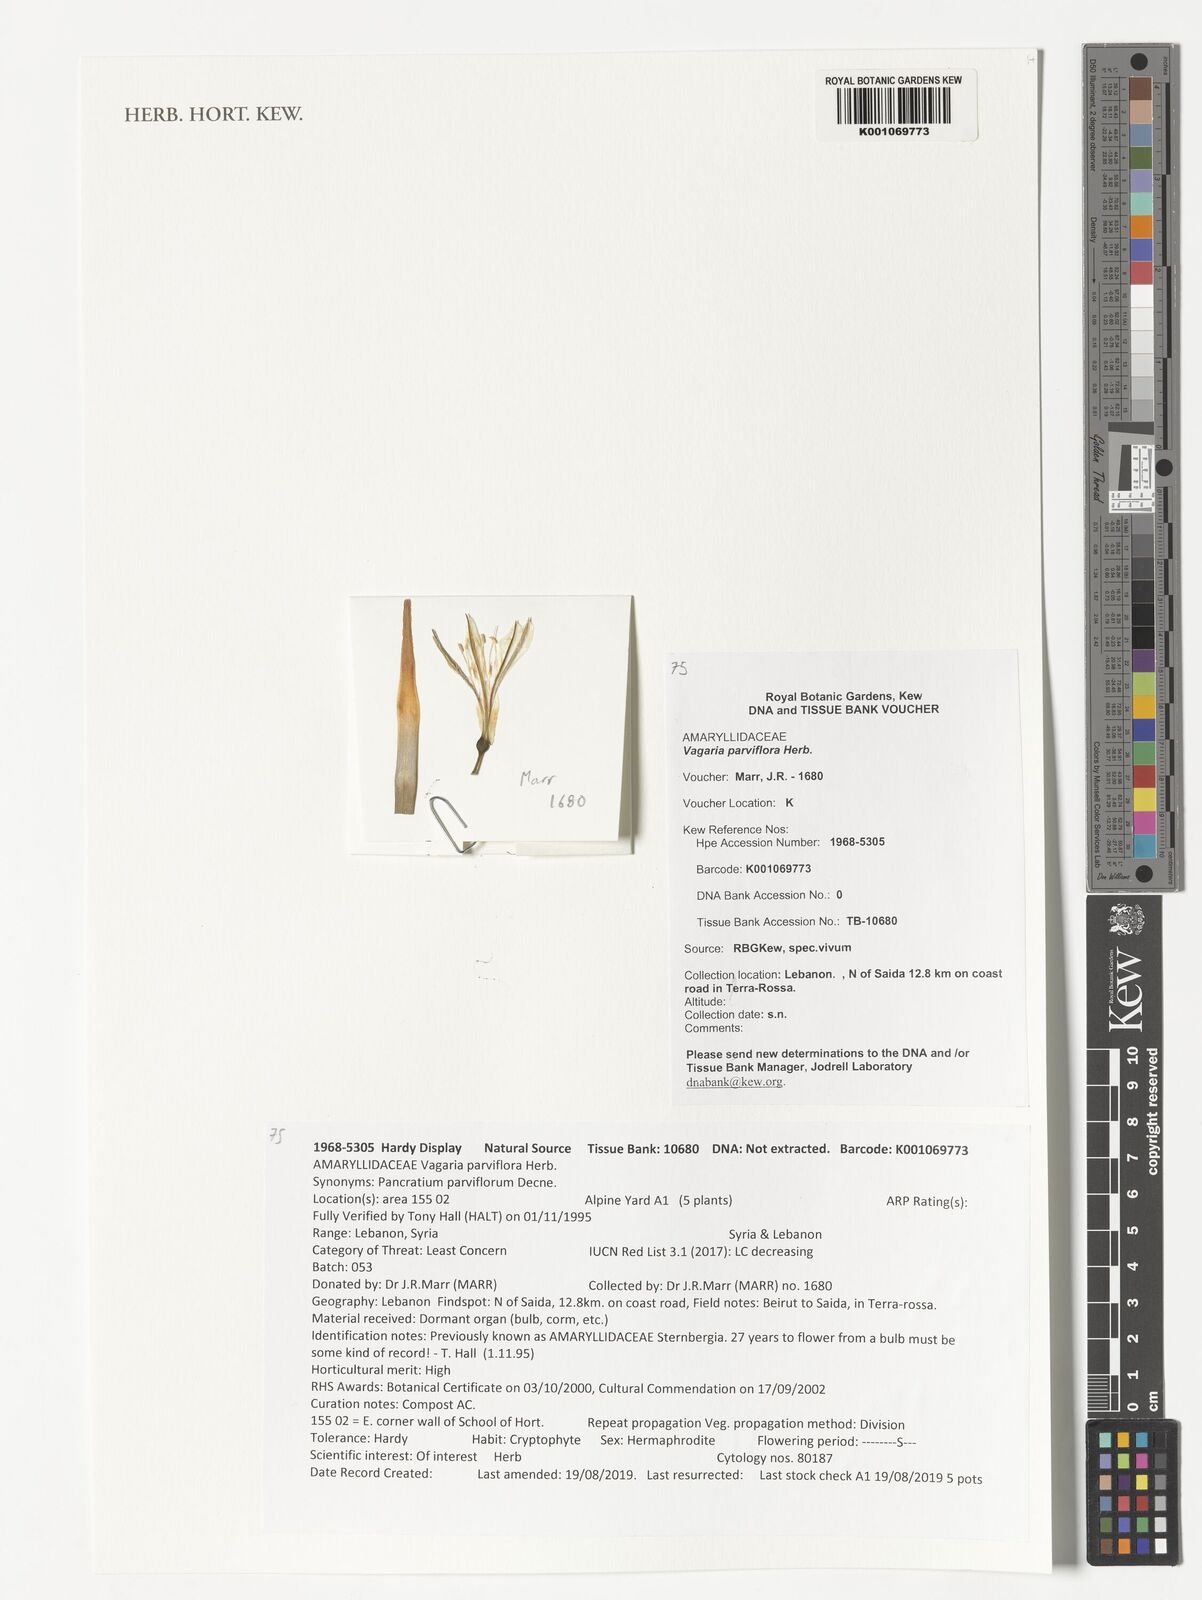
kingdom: Plantae
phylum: Tracheophyta
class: Liliopsida
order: Asparagales
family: Amaryllidaceae
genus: Vagaria
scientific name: Vagaria parviflora
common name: Small-flowered pancratium
